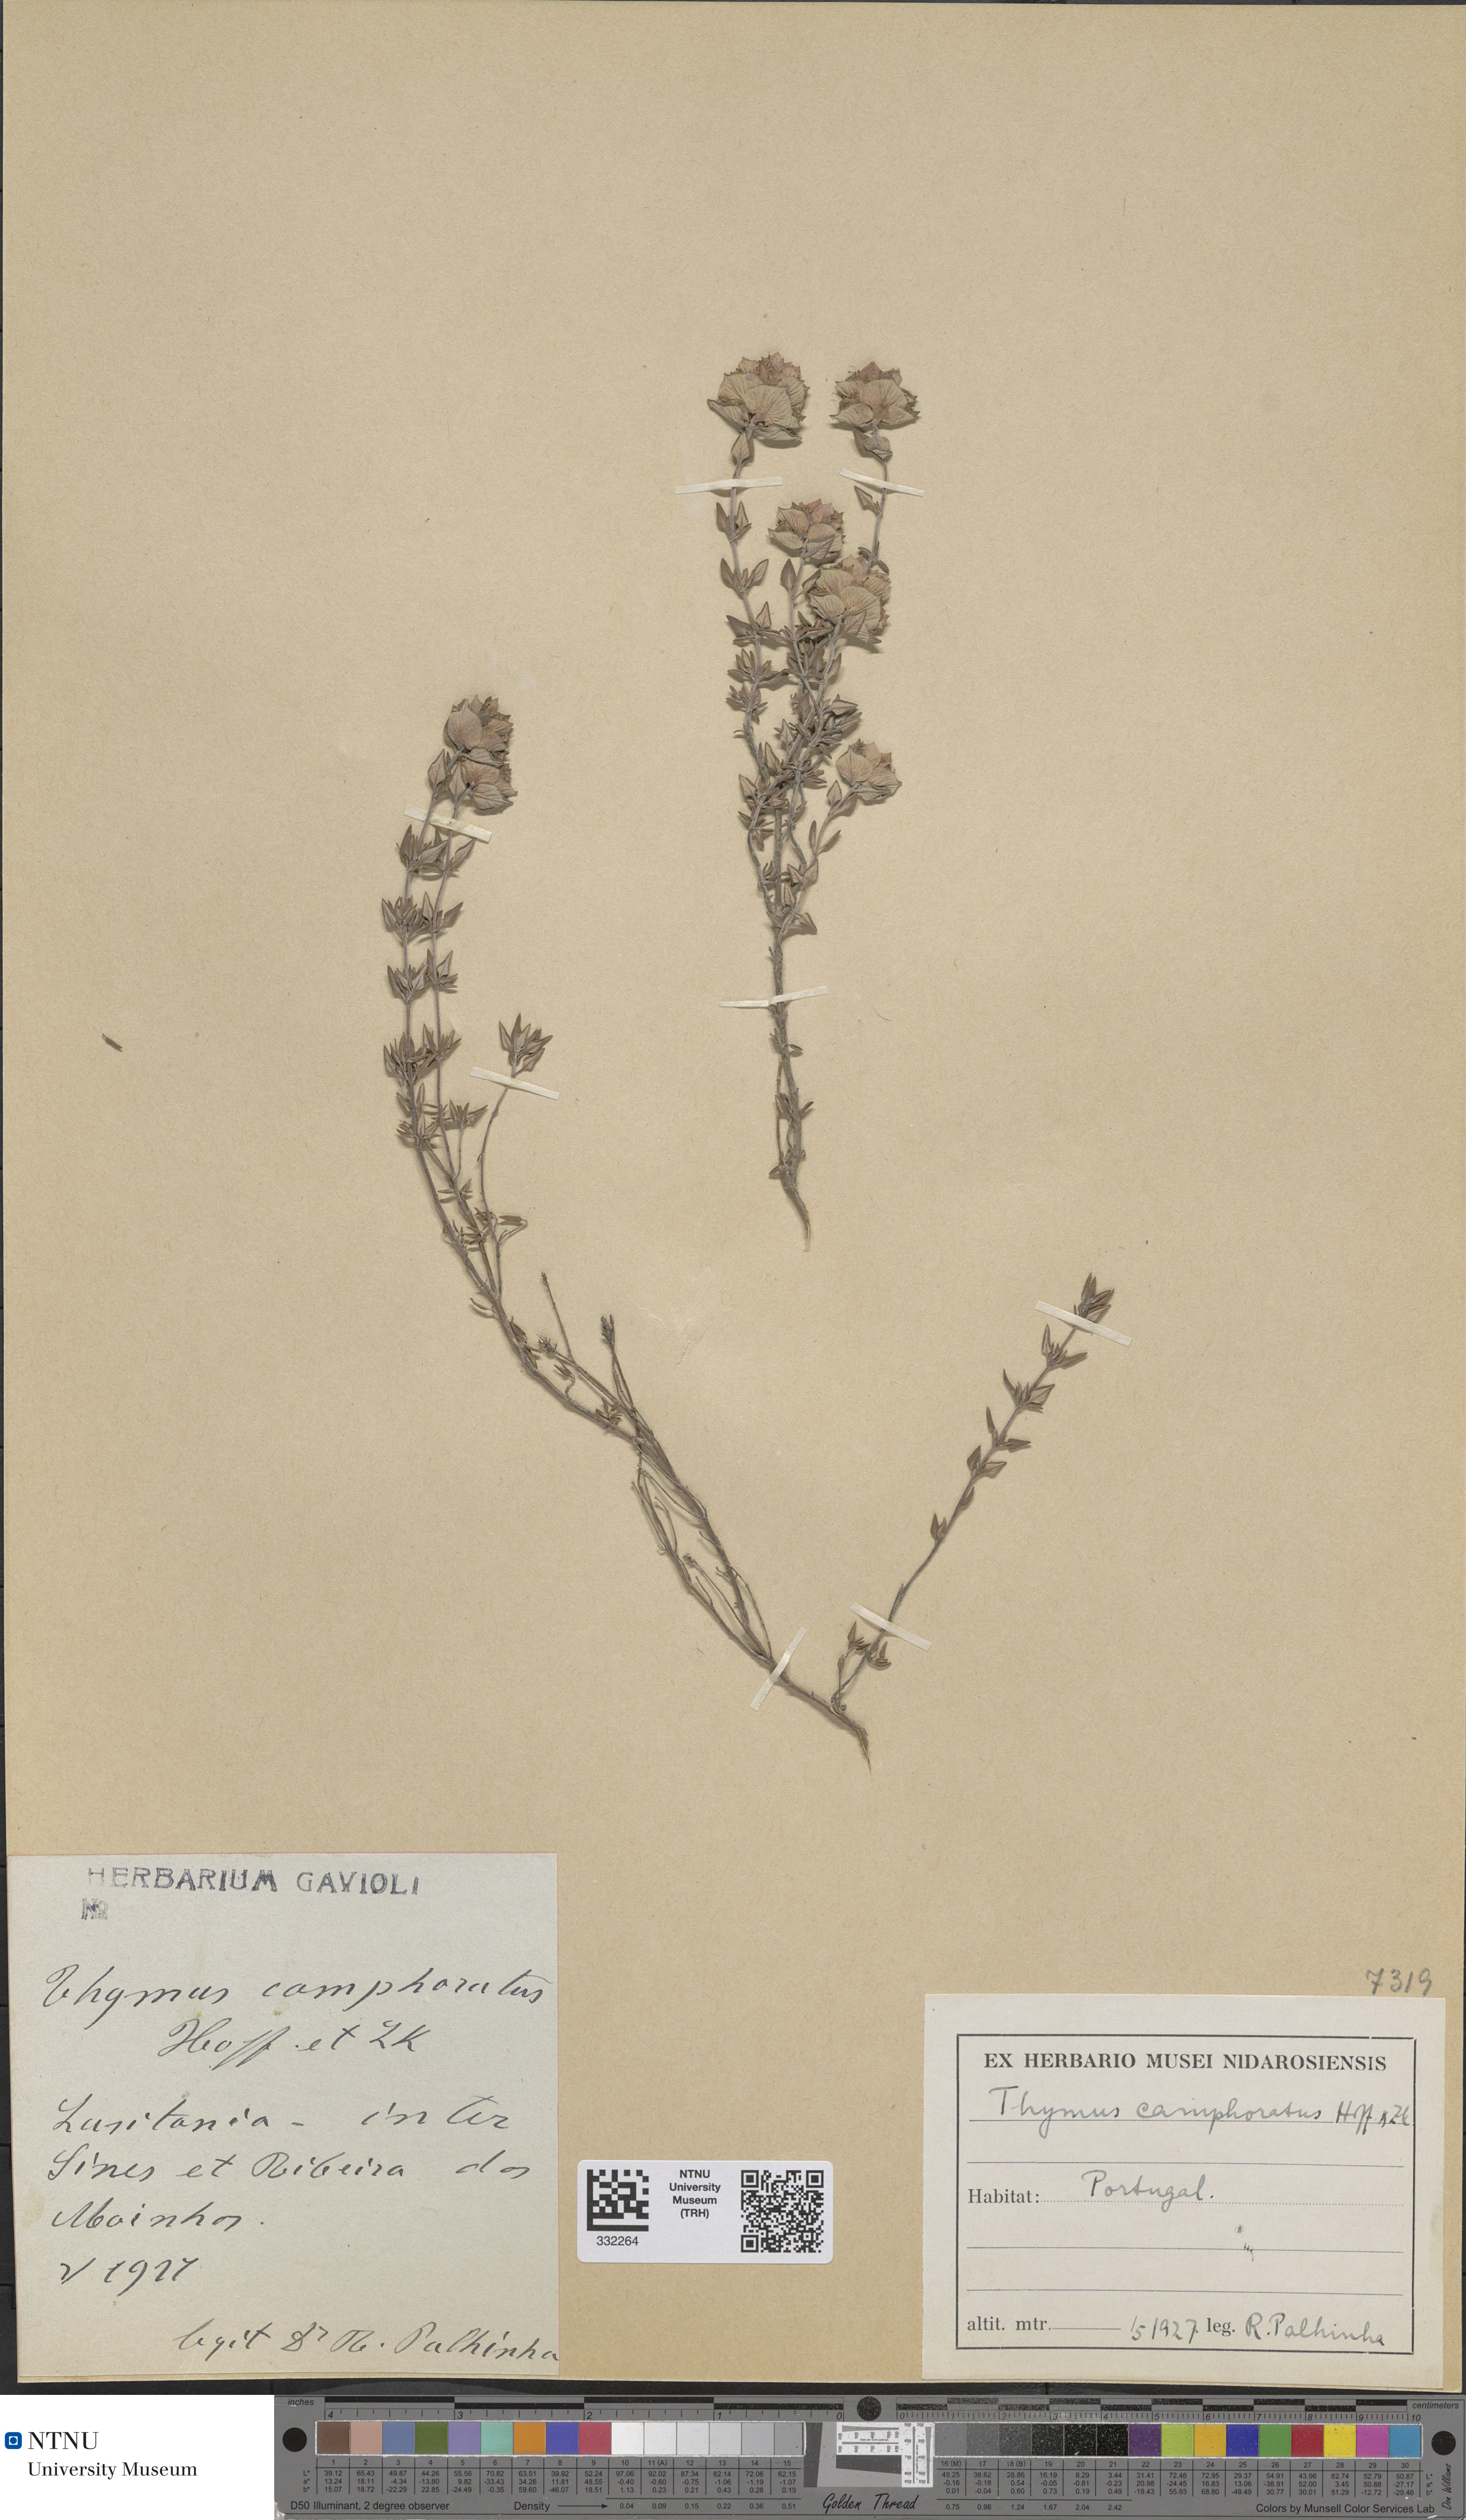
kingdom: Plantae
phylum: Tracheophyta
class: Magnoliopsida
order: Lamiales
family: Lamiaceae
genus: Thymus
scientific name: Thymus camphoratus
